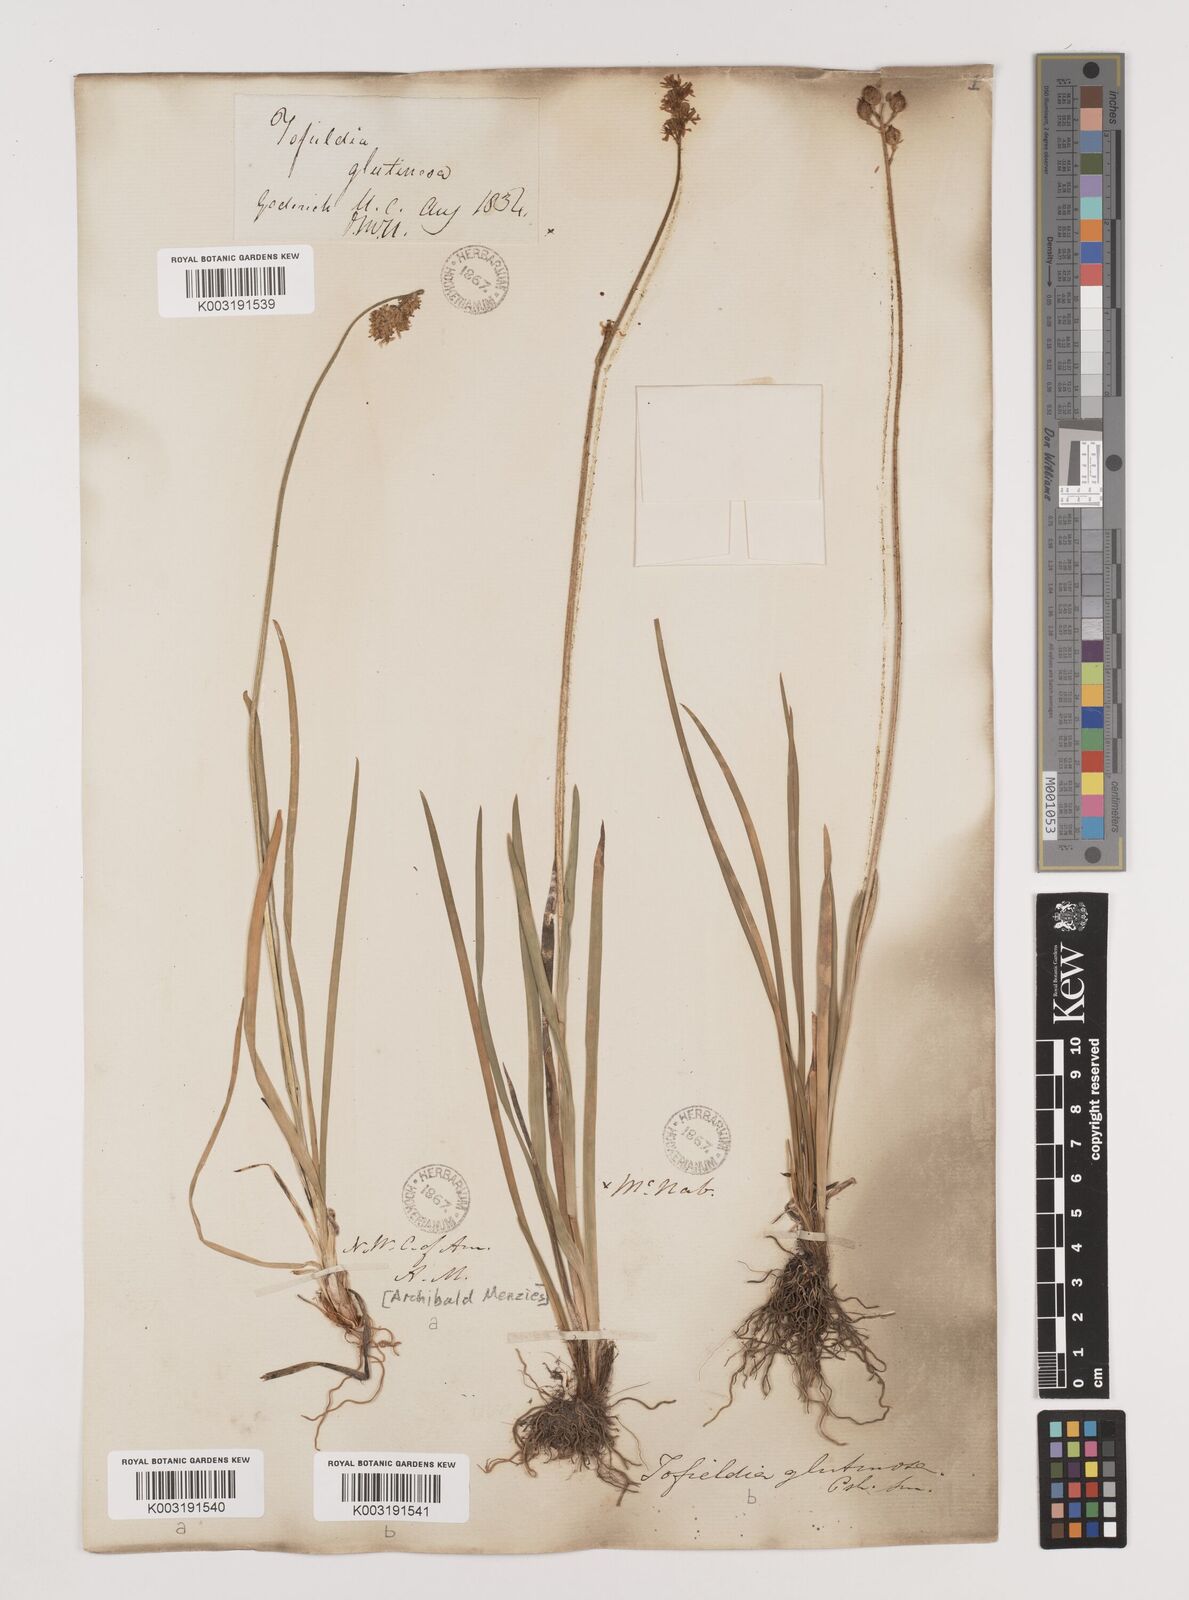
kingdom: Plantae
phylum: Tracheophyta
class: Liliopsida
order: Alismatales
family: Tofieldiaceae
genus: Triantha
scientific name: Triantha occidentalis
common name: Western false asphodel
